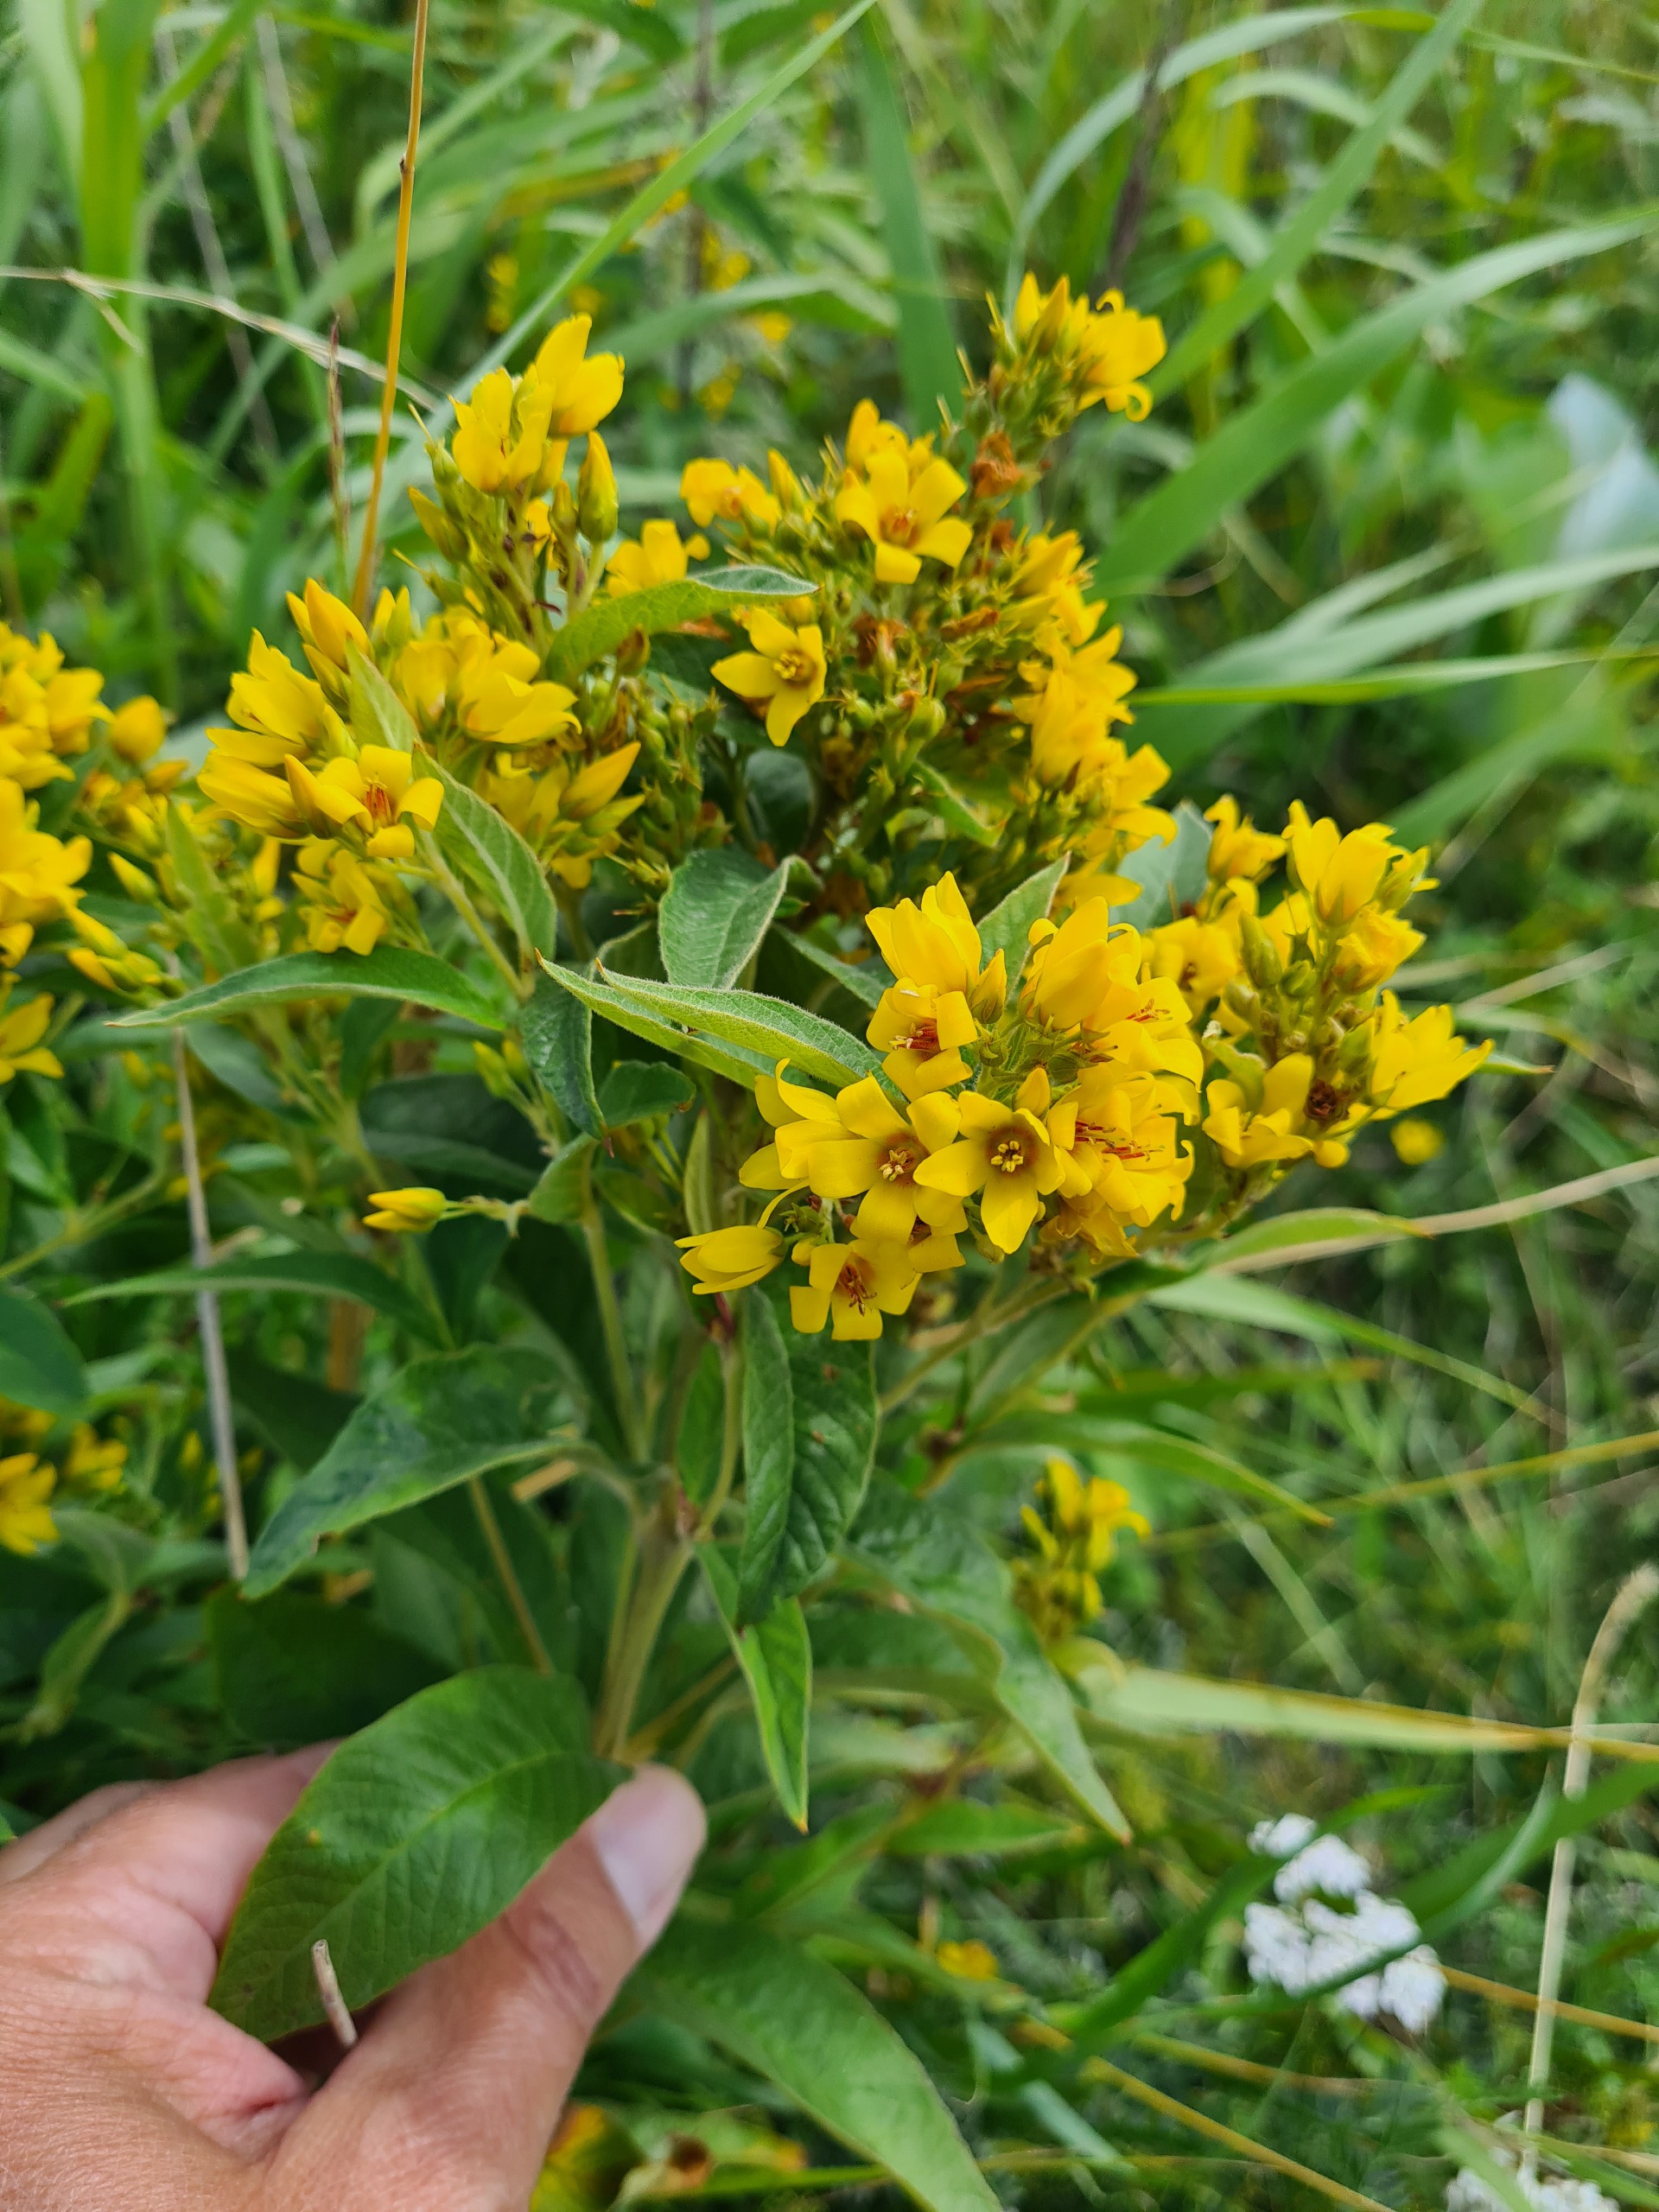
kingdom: Plantae
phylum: Tracheophyta
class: Magnoliopsida
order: Ericales
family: Primulaceae
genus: Lysimachia
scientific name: Lysimachia vulgaris
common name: Almindelig fredløs
